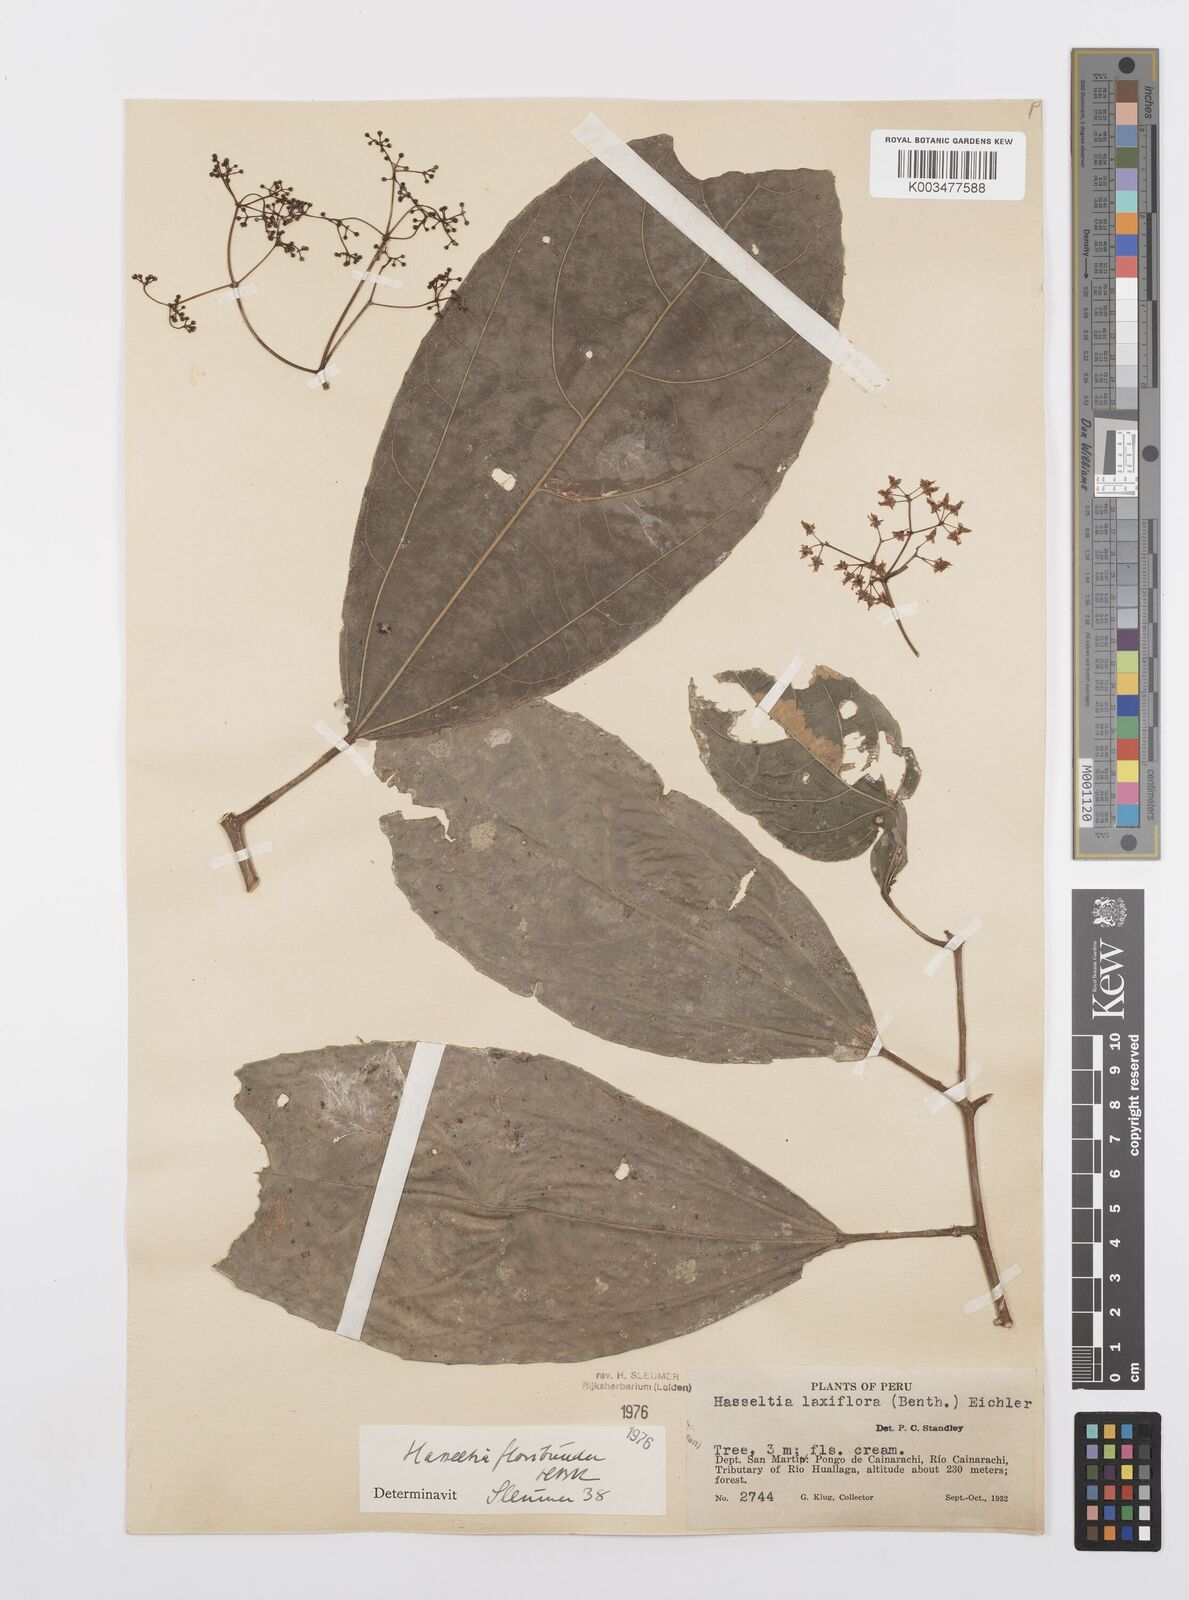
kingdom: Plantae
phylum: Tracheophyta
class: Magnoliopsida
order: Malpighiales
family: Salicaceae
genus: Hasseltia
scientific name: Hasseltia floribunda
